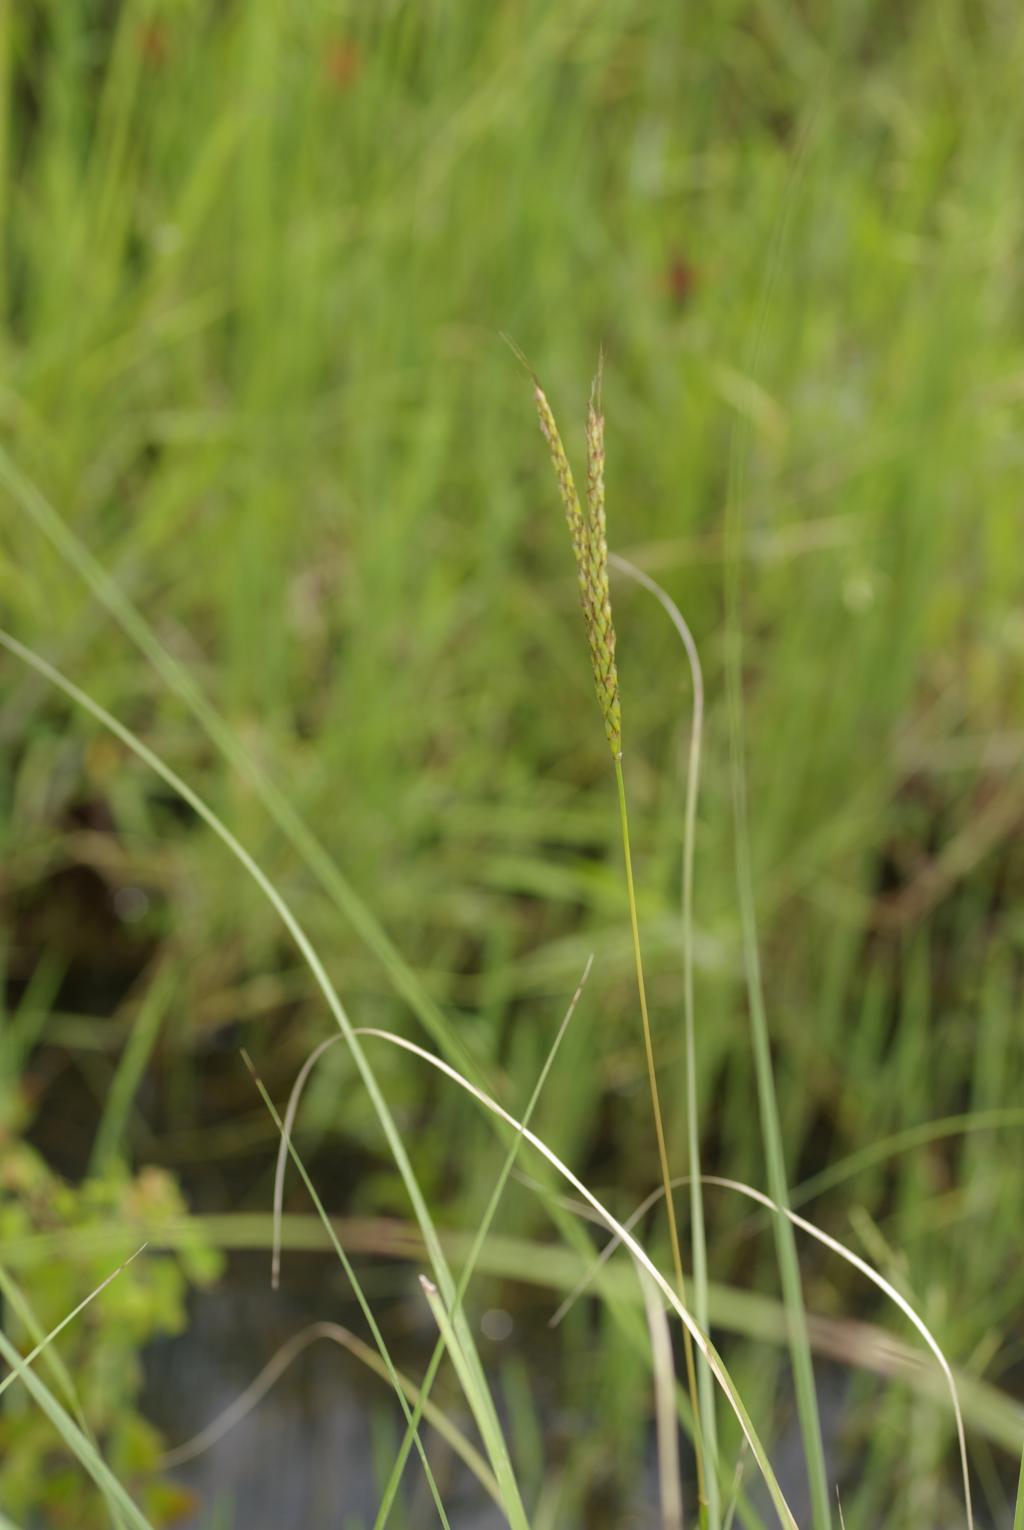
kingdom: Plantae
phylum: Tracheophyta
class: Liliopsida
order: Poales
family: Poaceae
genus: Polytrias
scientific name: Polytrias indica
